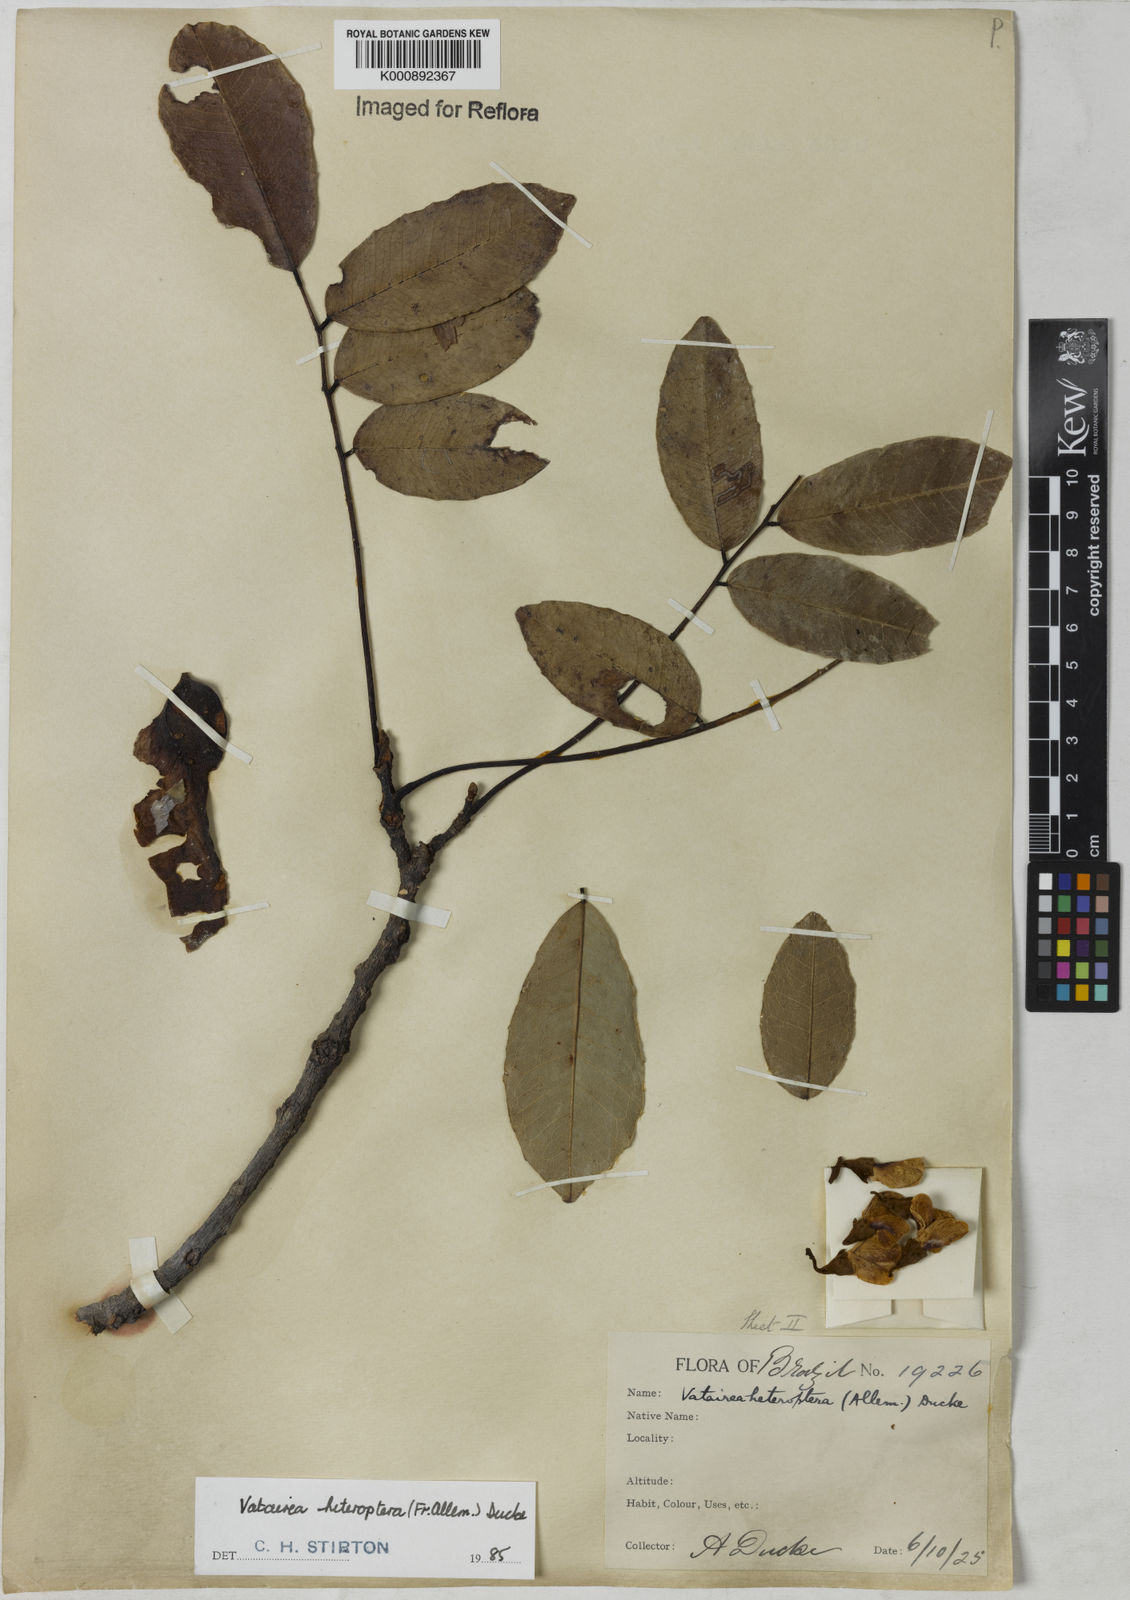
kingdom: Plantae
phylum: Tracheophyta
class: Magnoliopsida
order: Fabales
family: Fabaceae
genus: Vatairea
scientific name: Vatairea
